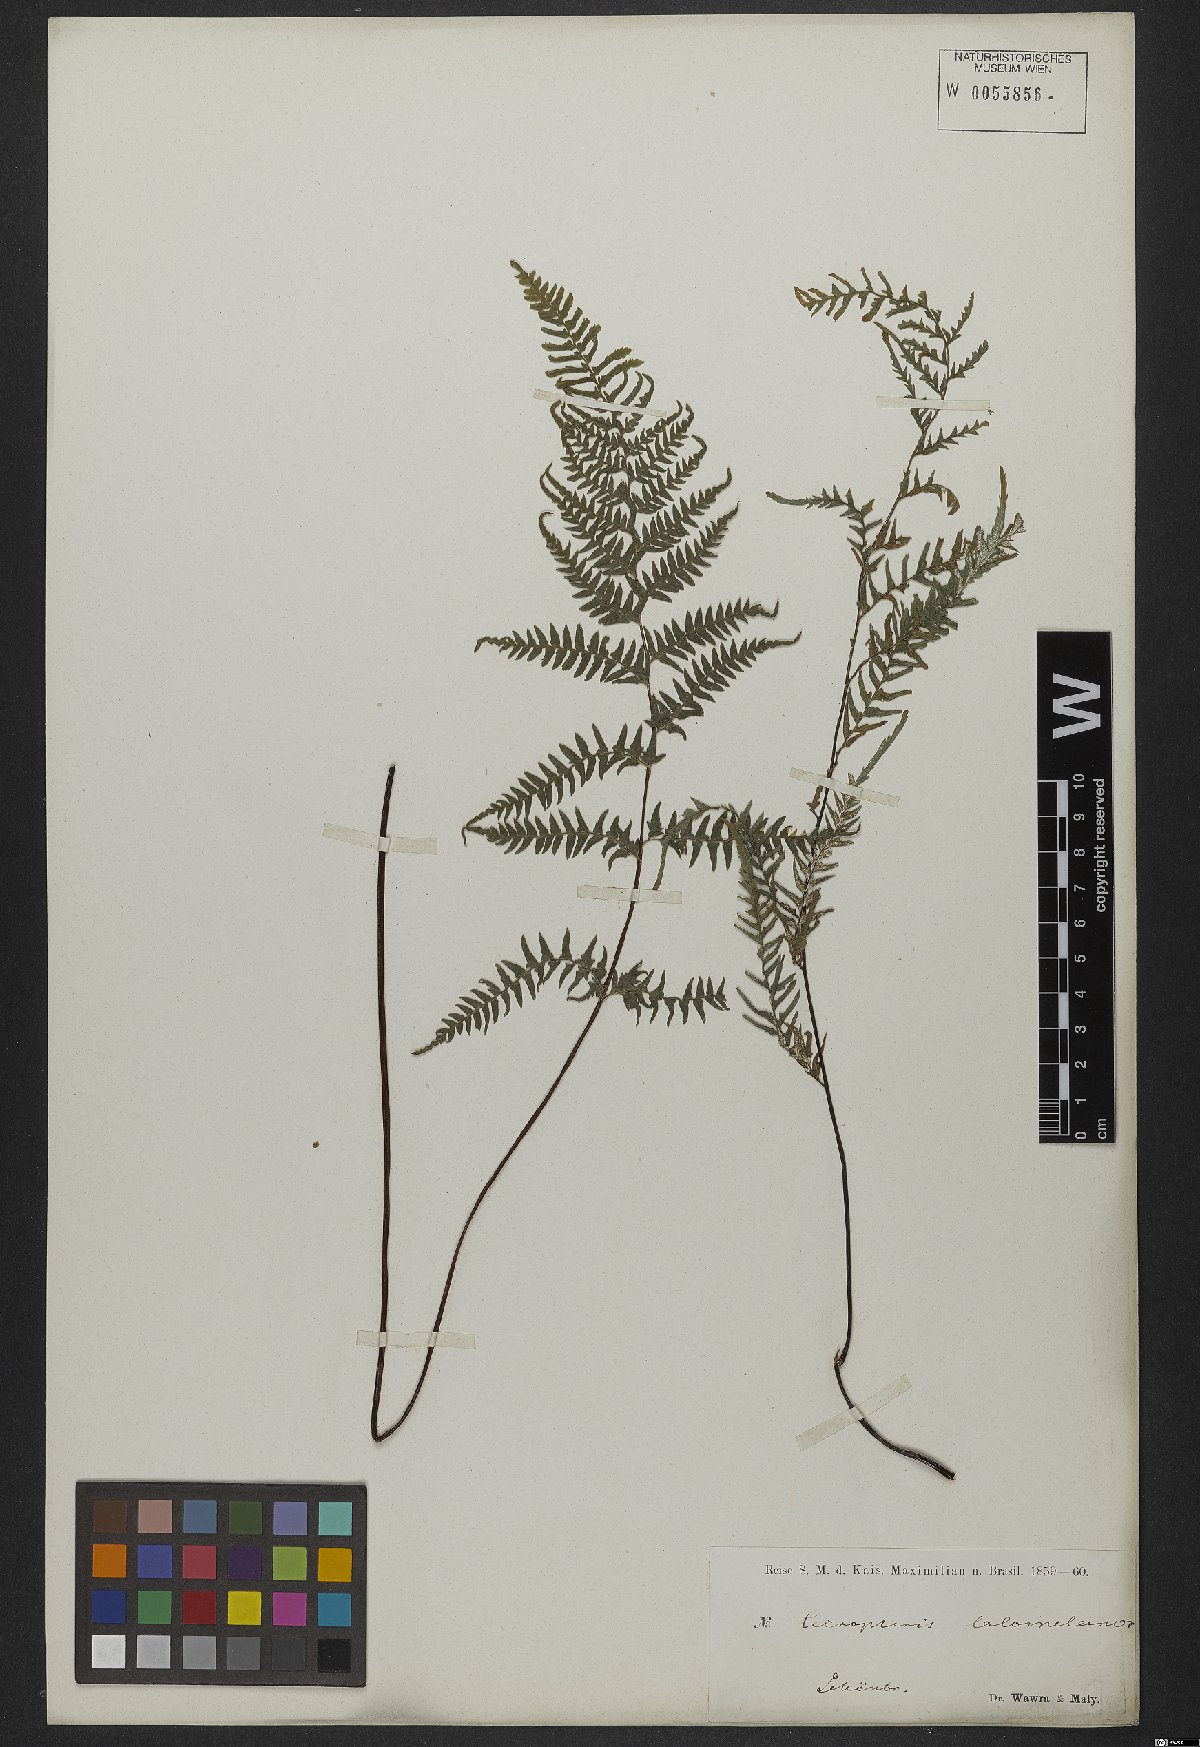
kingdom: Plantae
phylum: Tracheophyta
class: Polypodiopsida
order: Polypodiales
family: Pteridaceae
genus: Pityrogramma
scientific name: Pityrogramma calomelanos
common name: Dixie silverback fern
